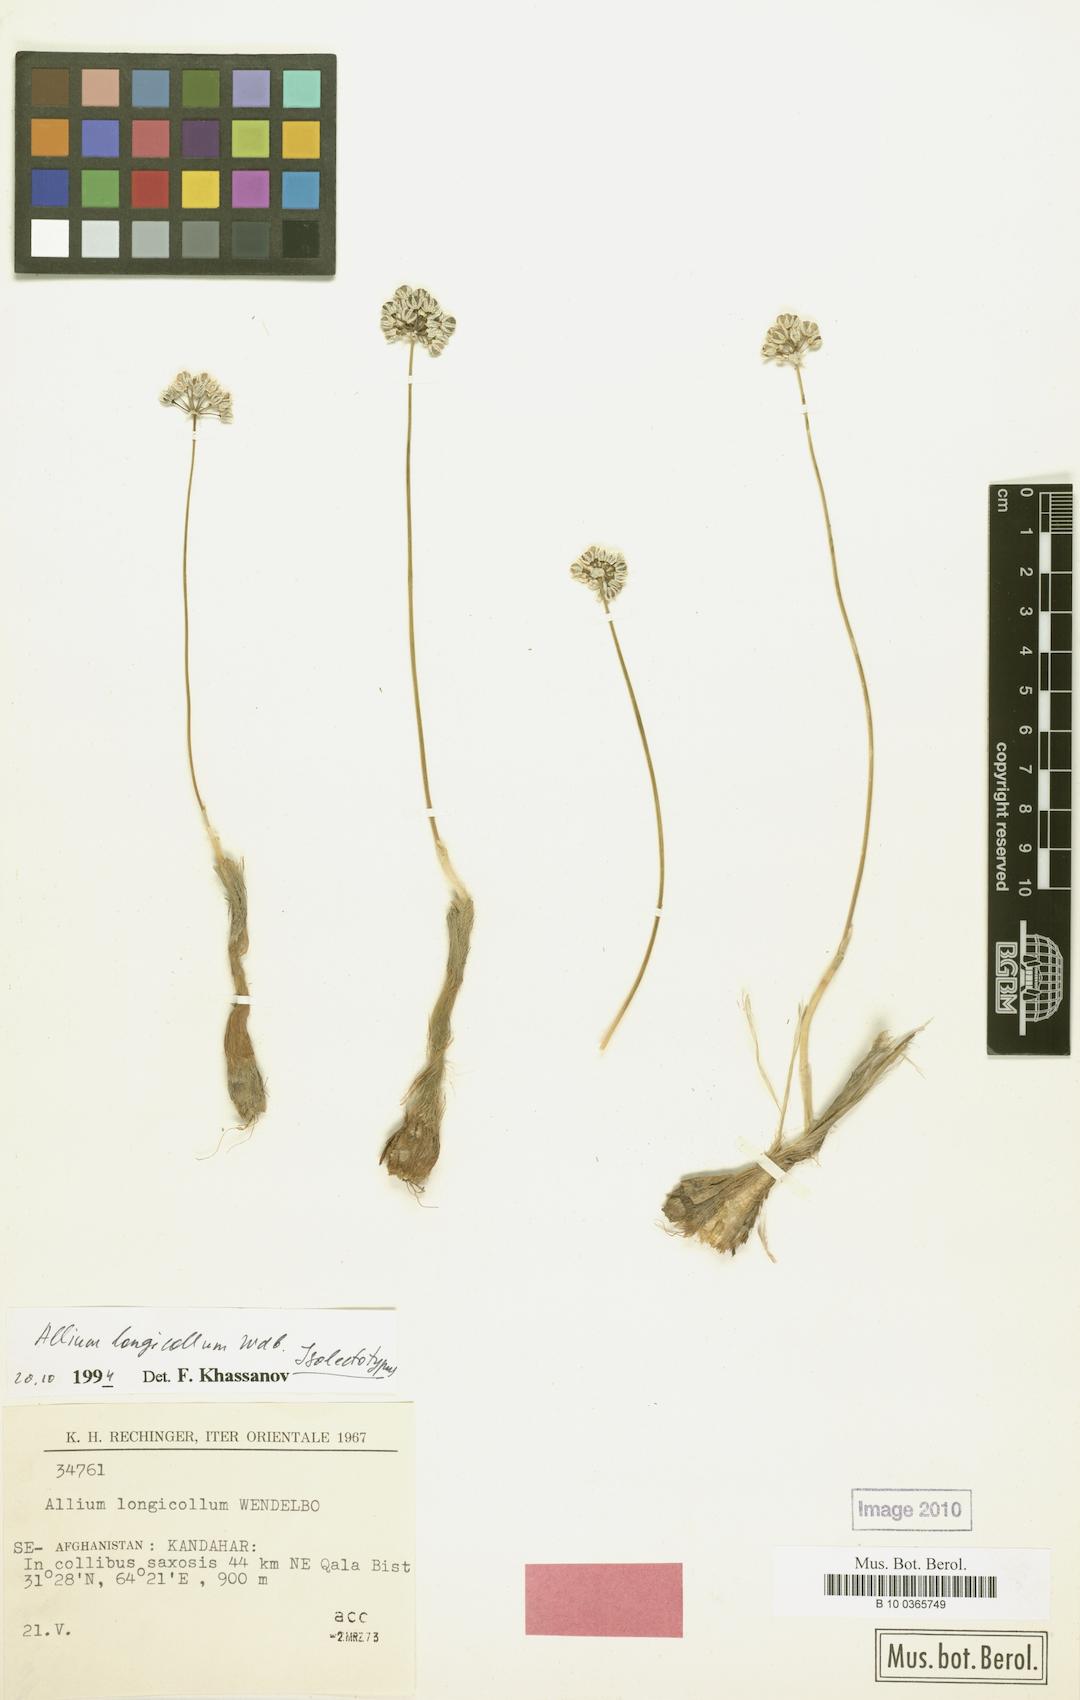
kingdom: Plantae
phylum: Tracheophyta
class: Liliopsida
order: Asparagales
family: Amaryllidaceae
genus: Allium
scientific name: Allium longicollum
